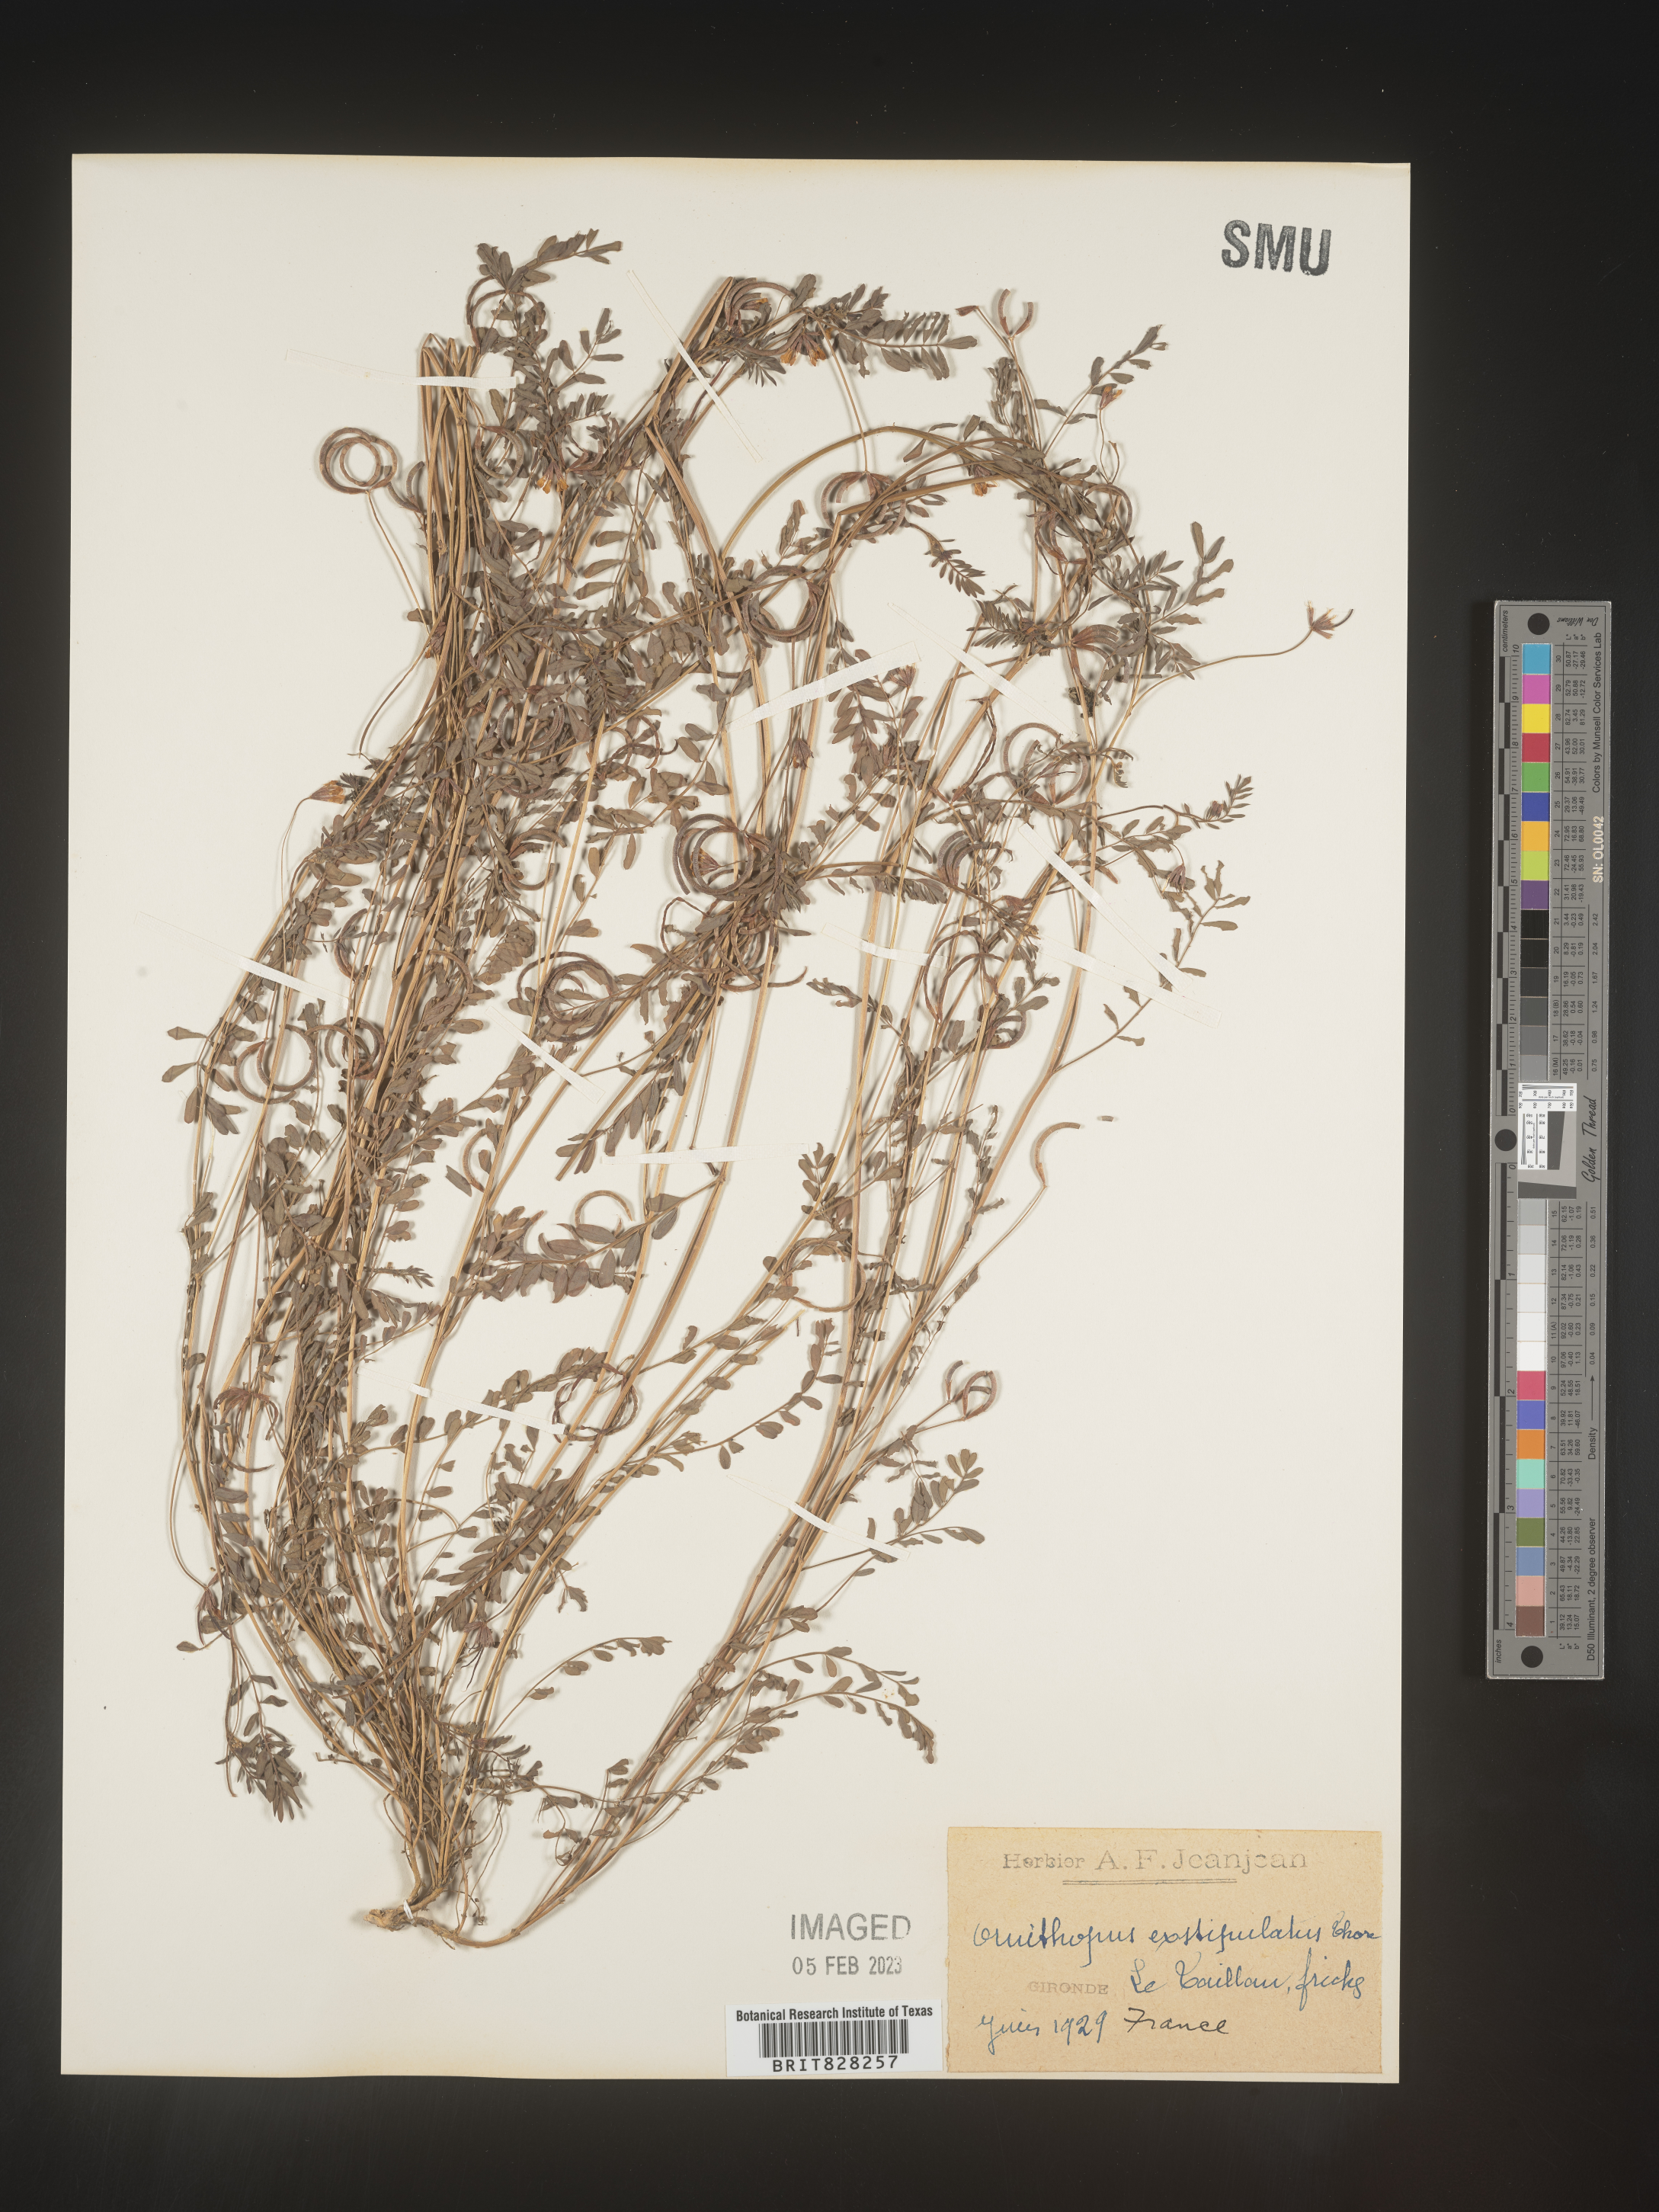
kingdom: Plantae
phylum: Tracheophyta
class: Magnoliopsida
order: Fabales
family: Fabaceae
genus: Ornithopus
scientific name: Ornithopus
